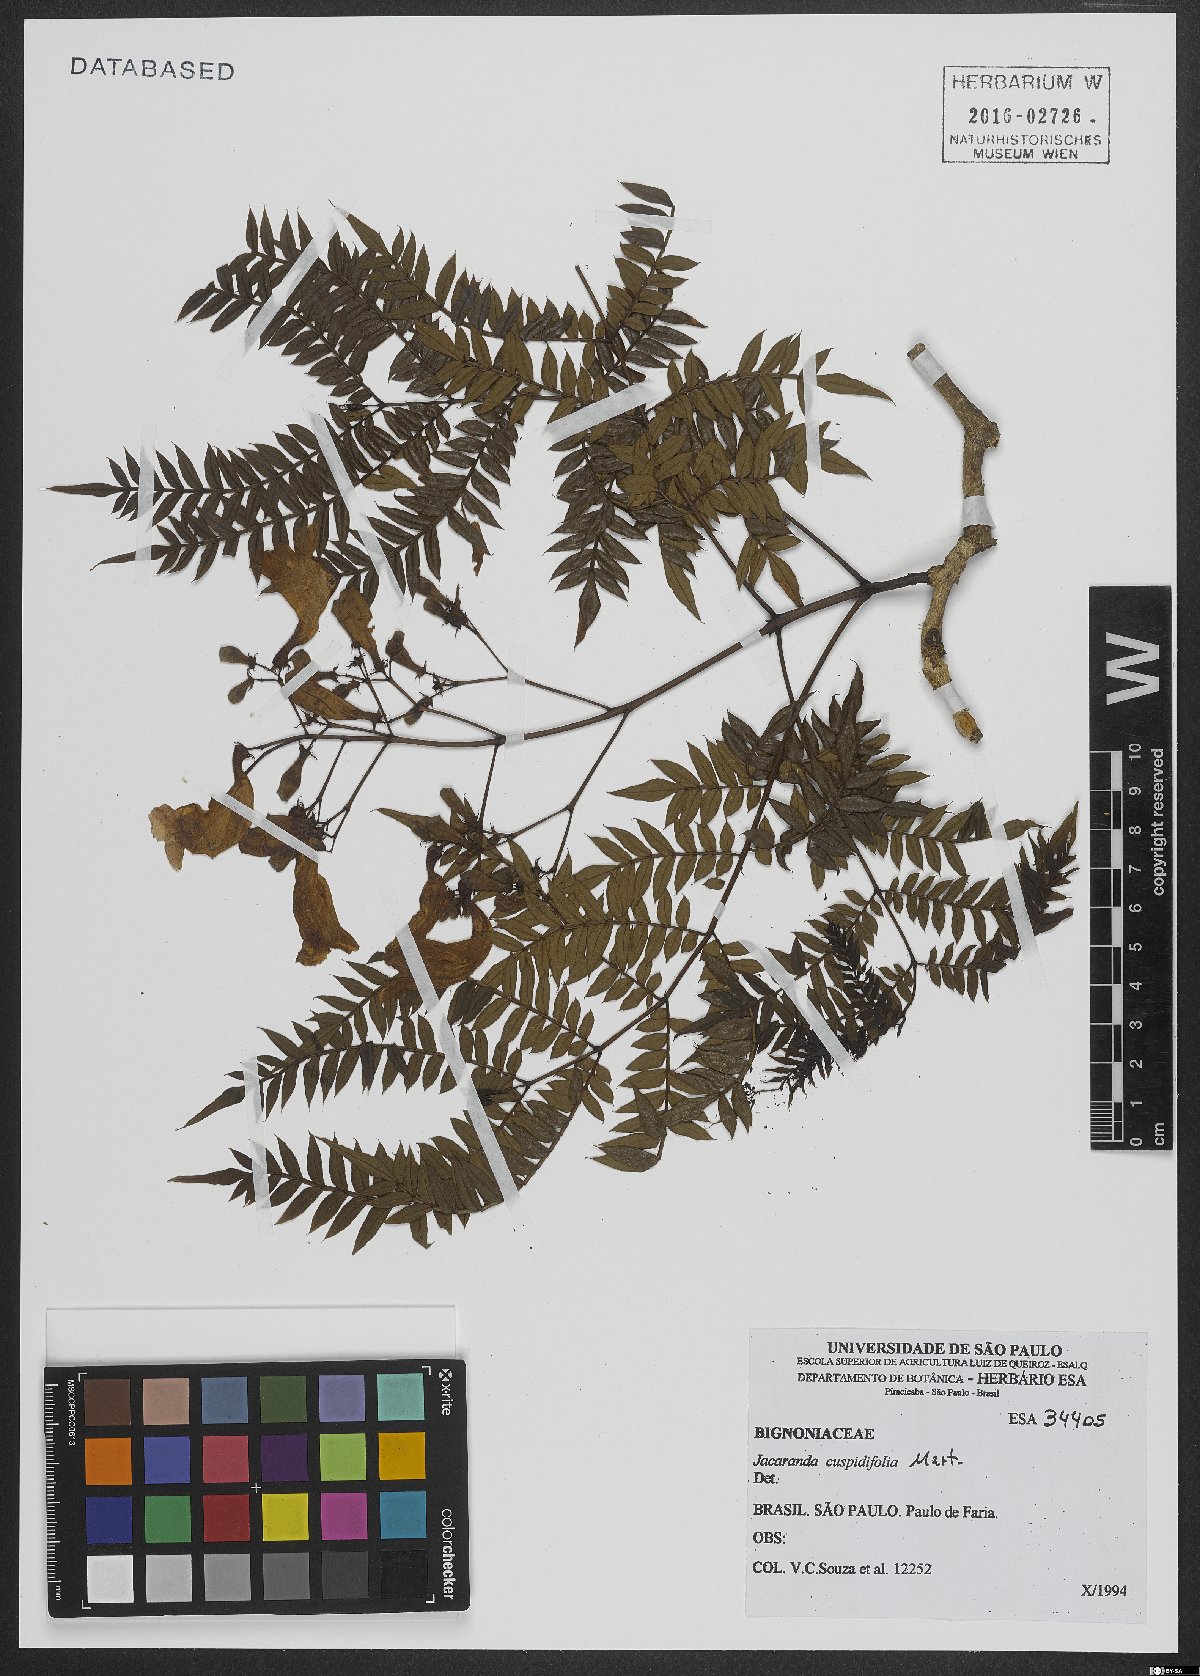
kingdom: Plantae
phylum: Tracheophyta
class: Magnoliopsida
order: Lamiales
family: Bignoniaceae
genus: Jacaranda
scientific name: Jacaranda cuspidifolia
